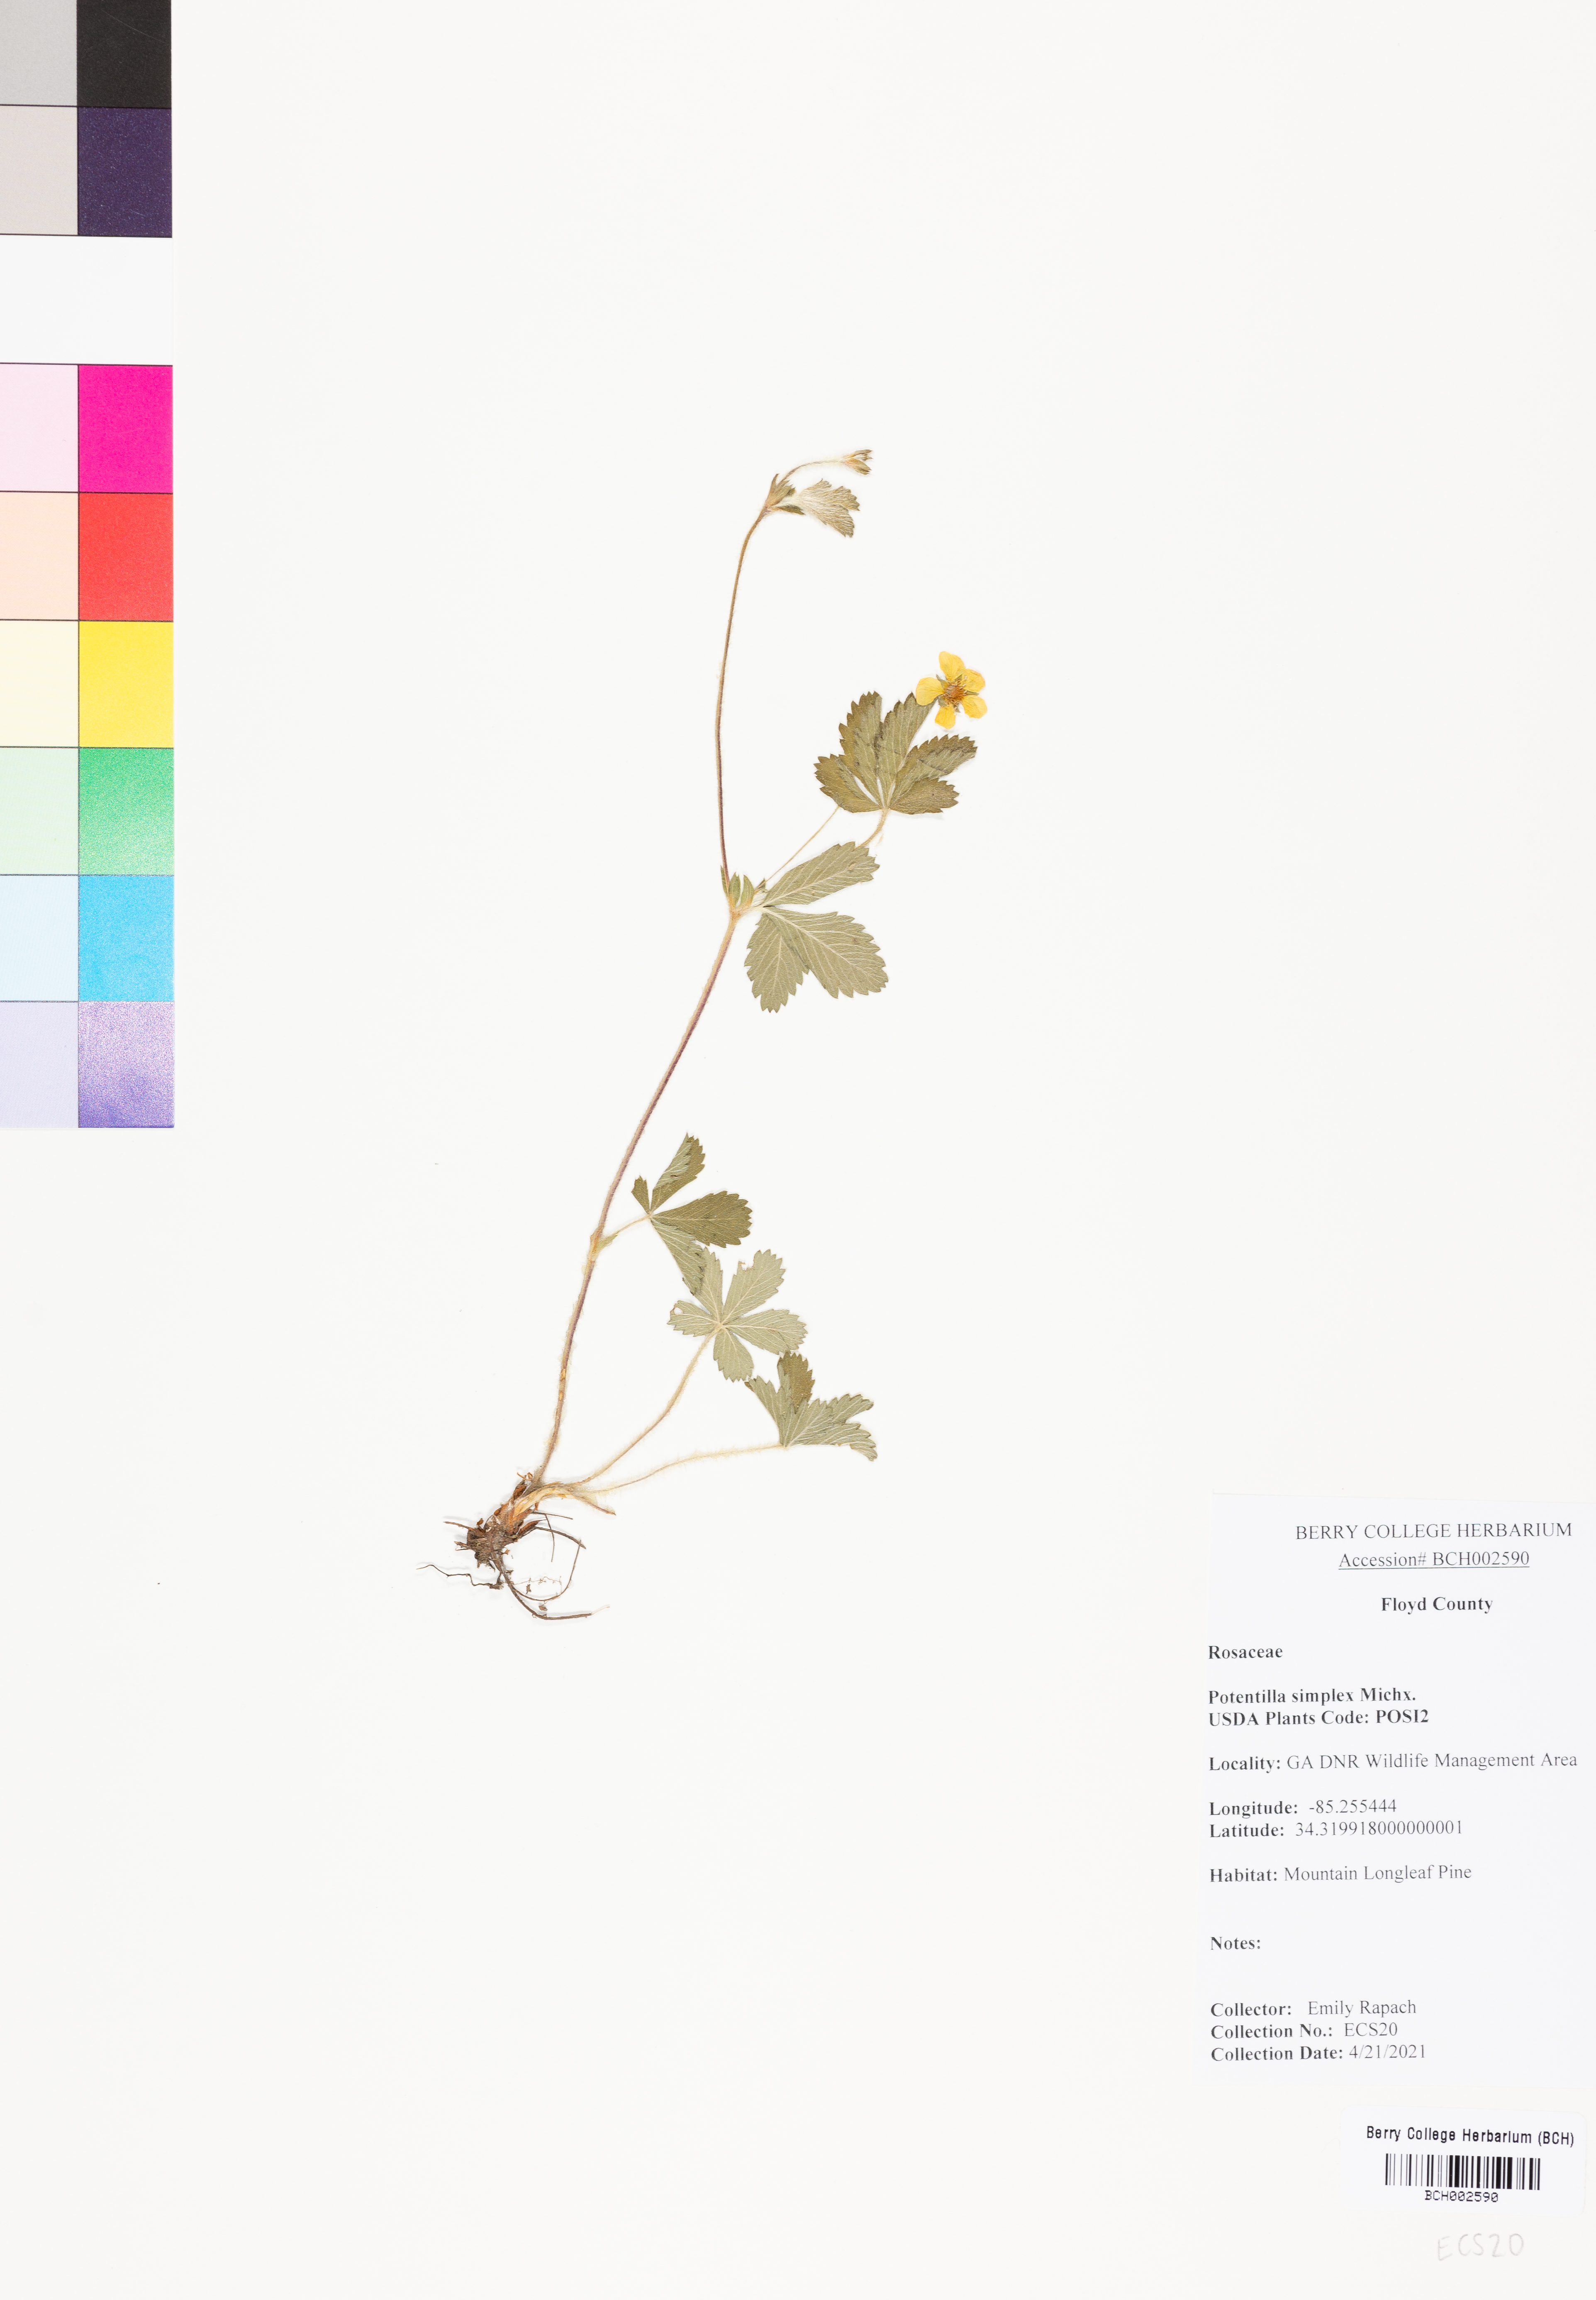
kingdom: Plantae
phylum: Tracheophyta
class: Magnoliopsida
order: Rosales
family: Rosaceae
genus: Potentilla
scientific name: Potentilla simplex
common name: Old field cinquefoil
